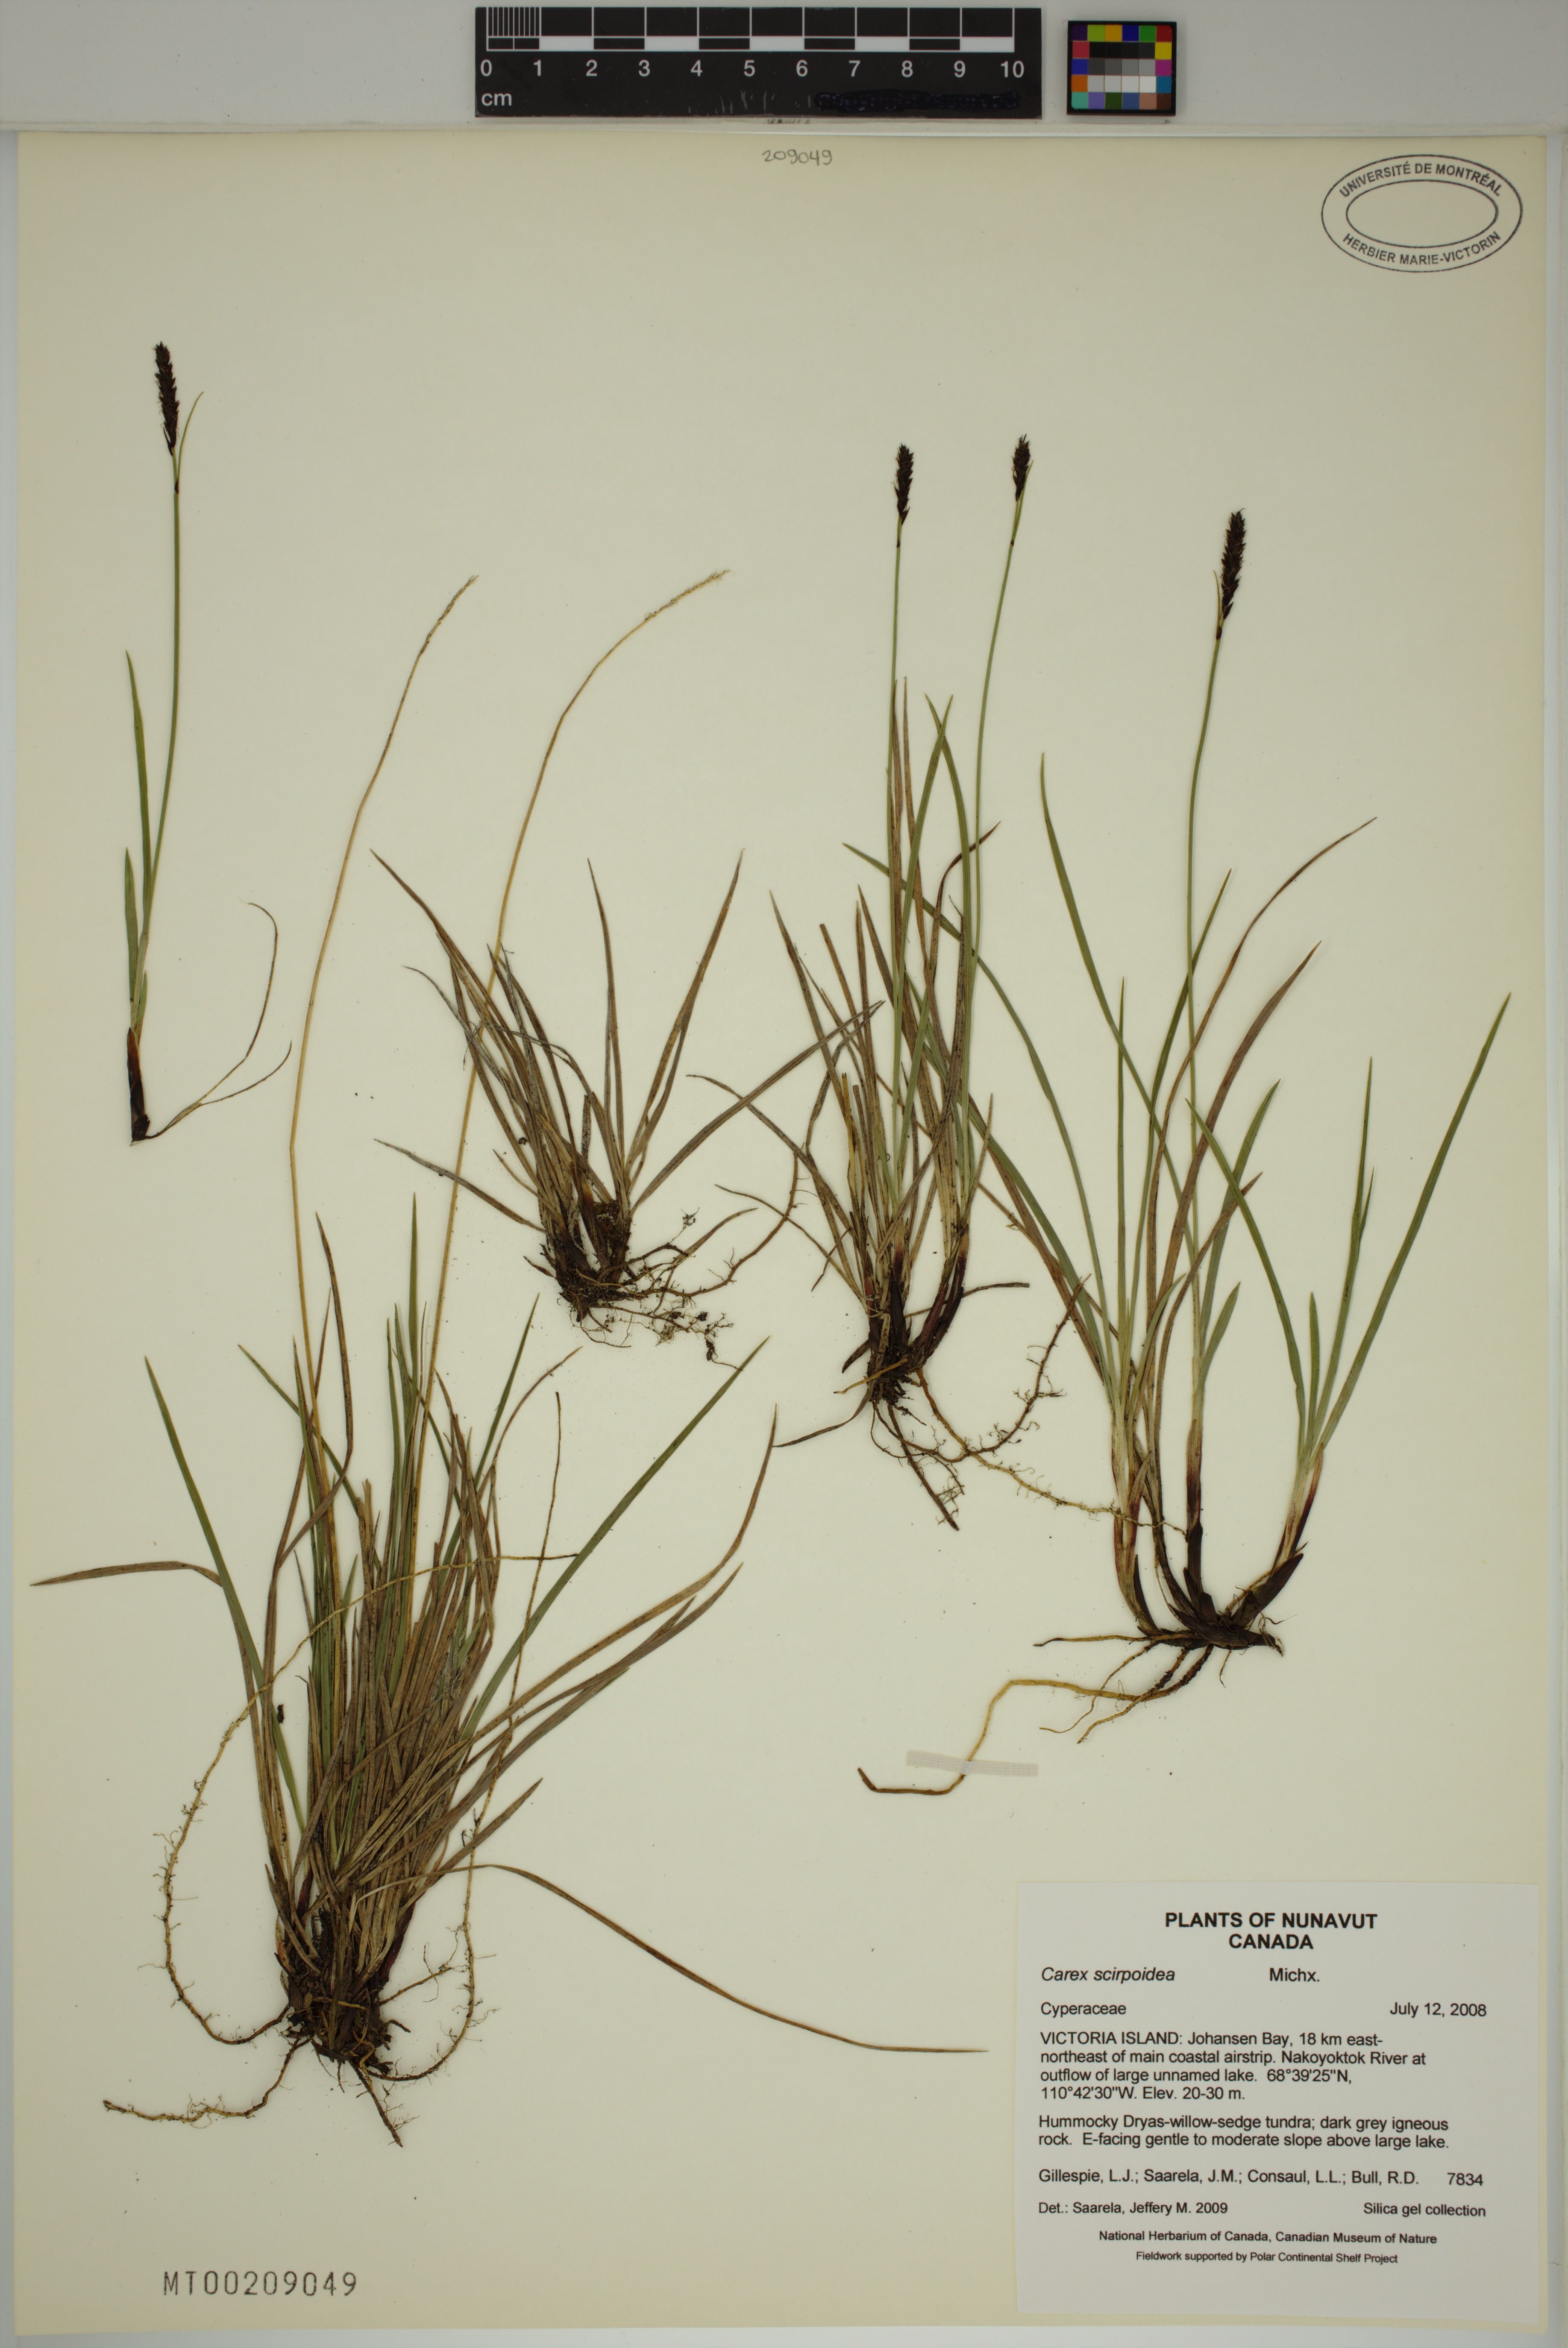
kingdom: Plantae
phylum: Tracheophyta
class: Liliopsida
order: Poales
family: Cyperaceae
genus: Carex
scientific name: Carex scirpoidea
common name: Canada single-spike sedge
